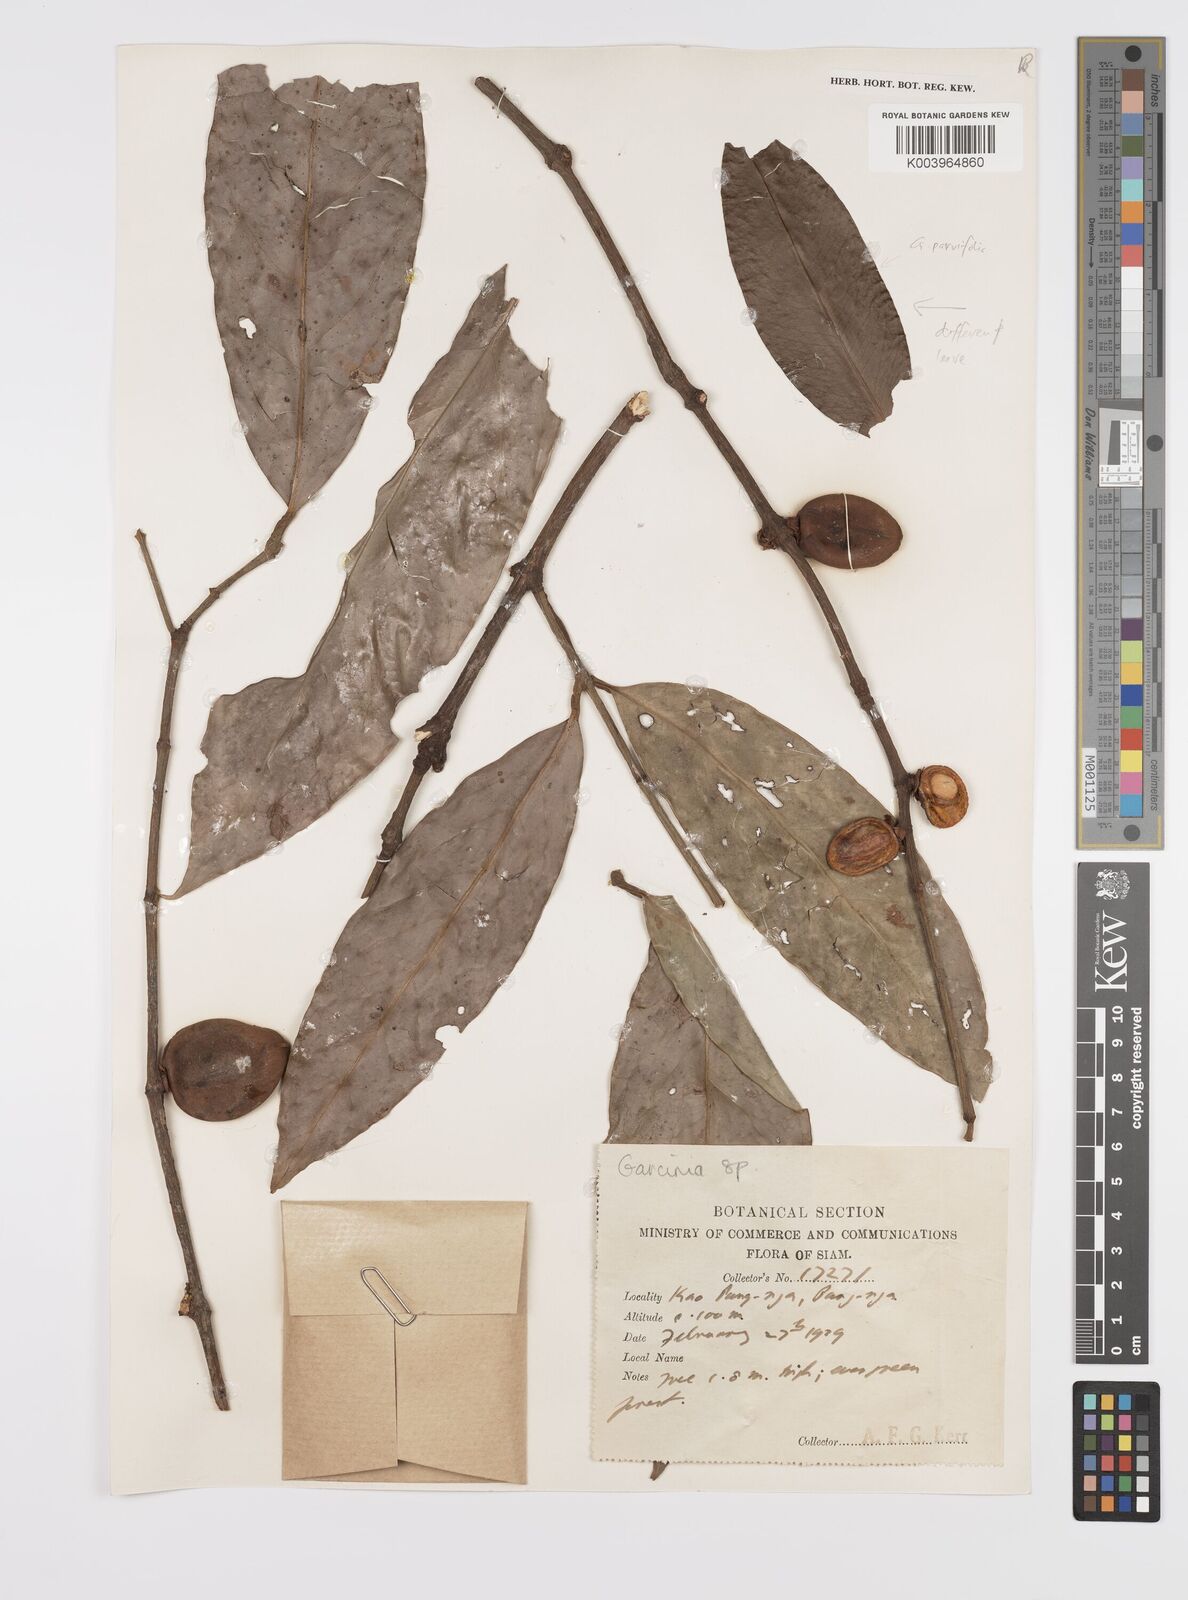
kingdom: Plantae
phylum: Tracheophyta
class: Magnoliopsida
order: Malpighiales
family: Clusiaceae
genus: Garcinia
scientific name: Garcinia
